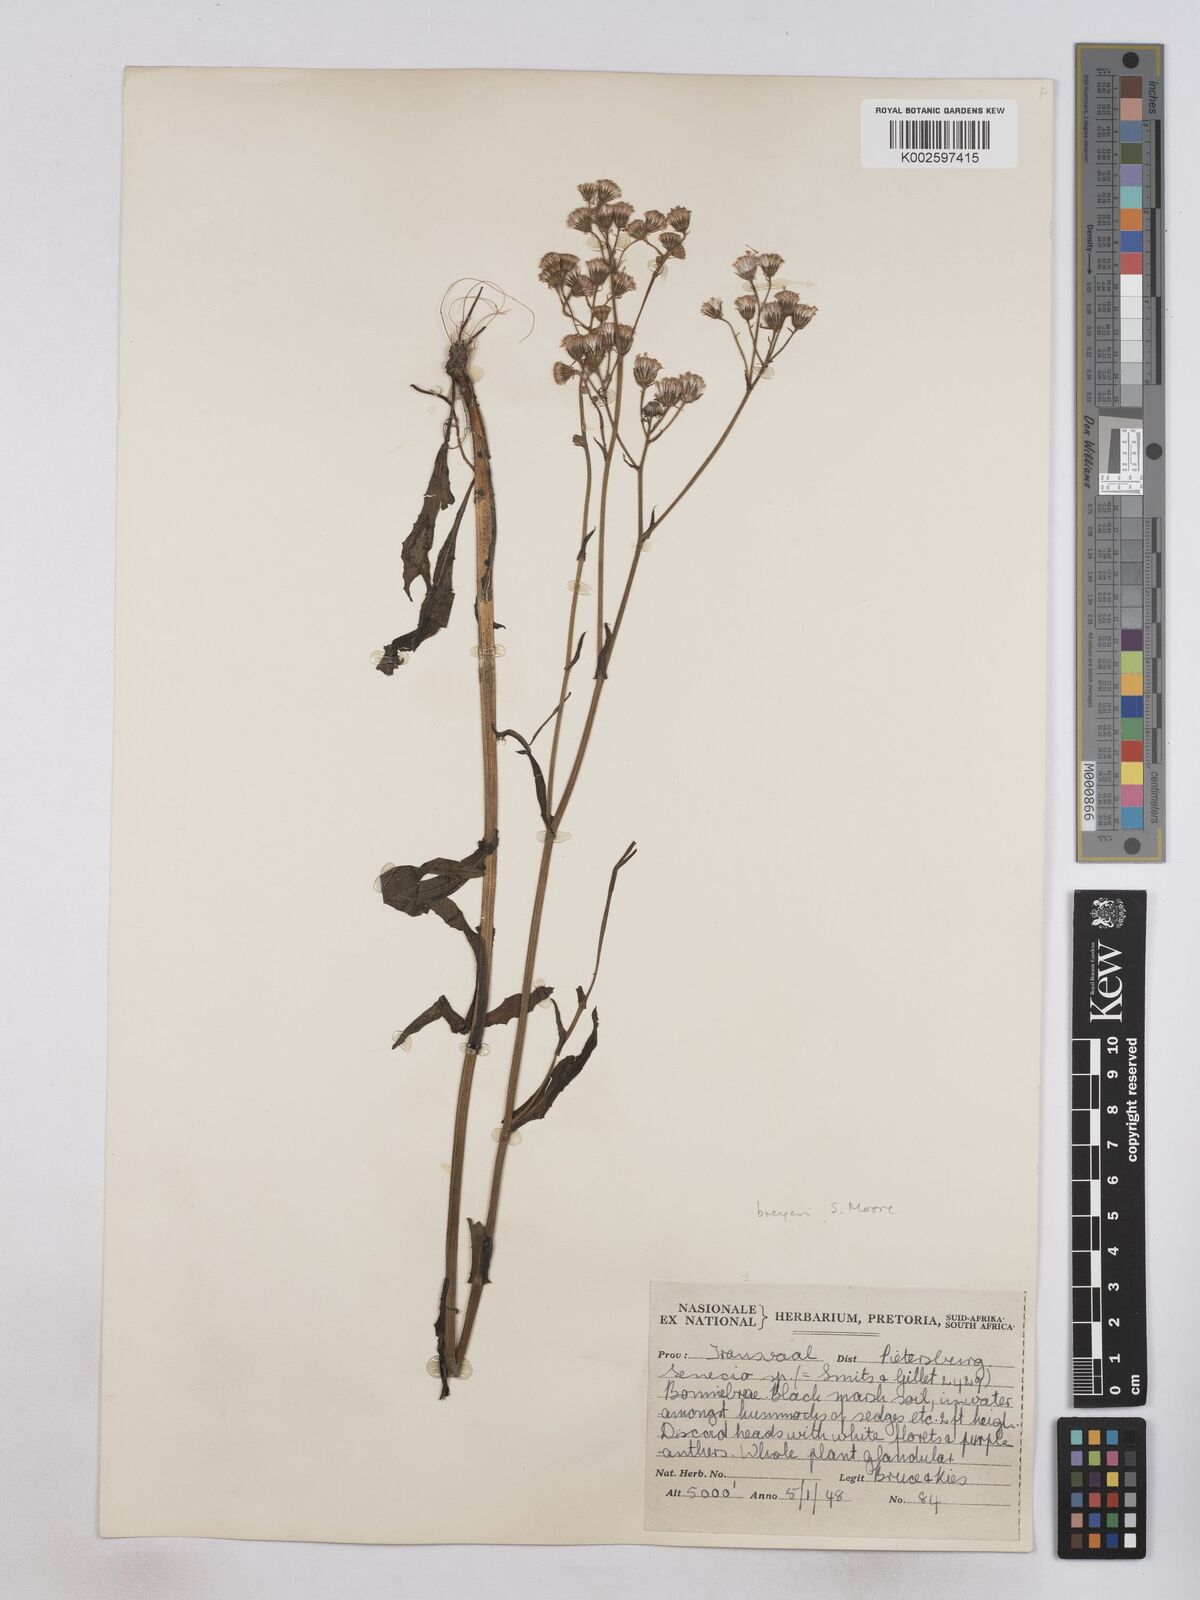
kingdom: Plantae
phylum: Tracheophyta
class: Magnoliopsida
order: Asterales
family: Asteraceae
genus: Senecio
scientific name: Senecio polyodon
